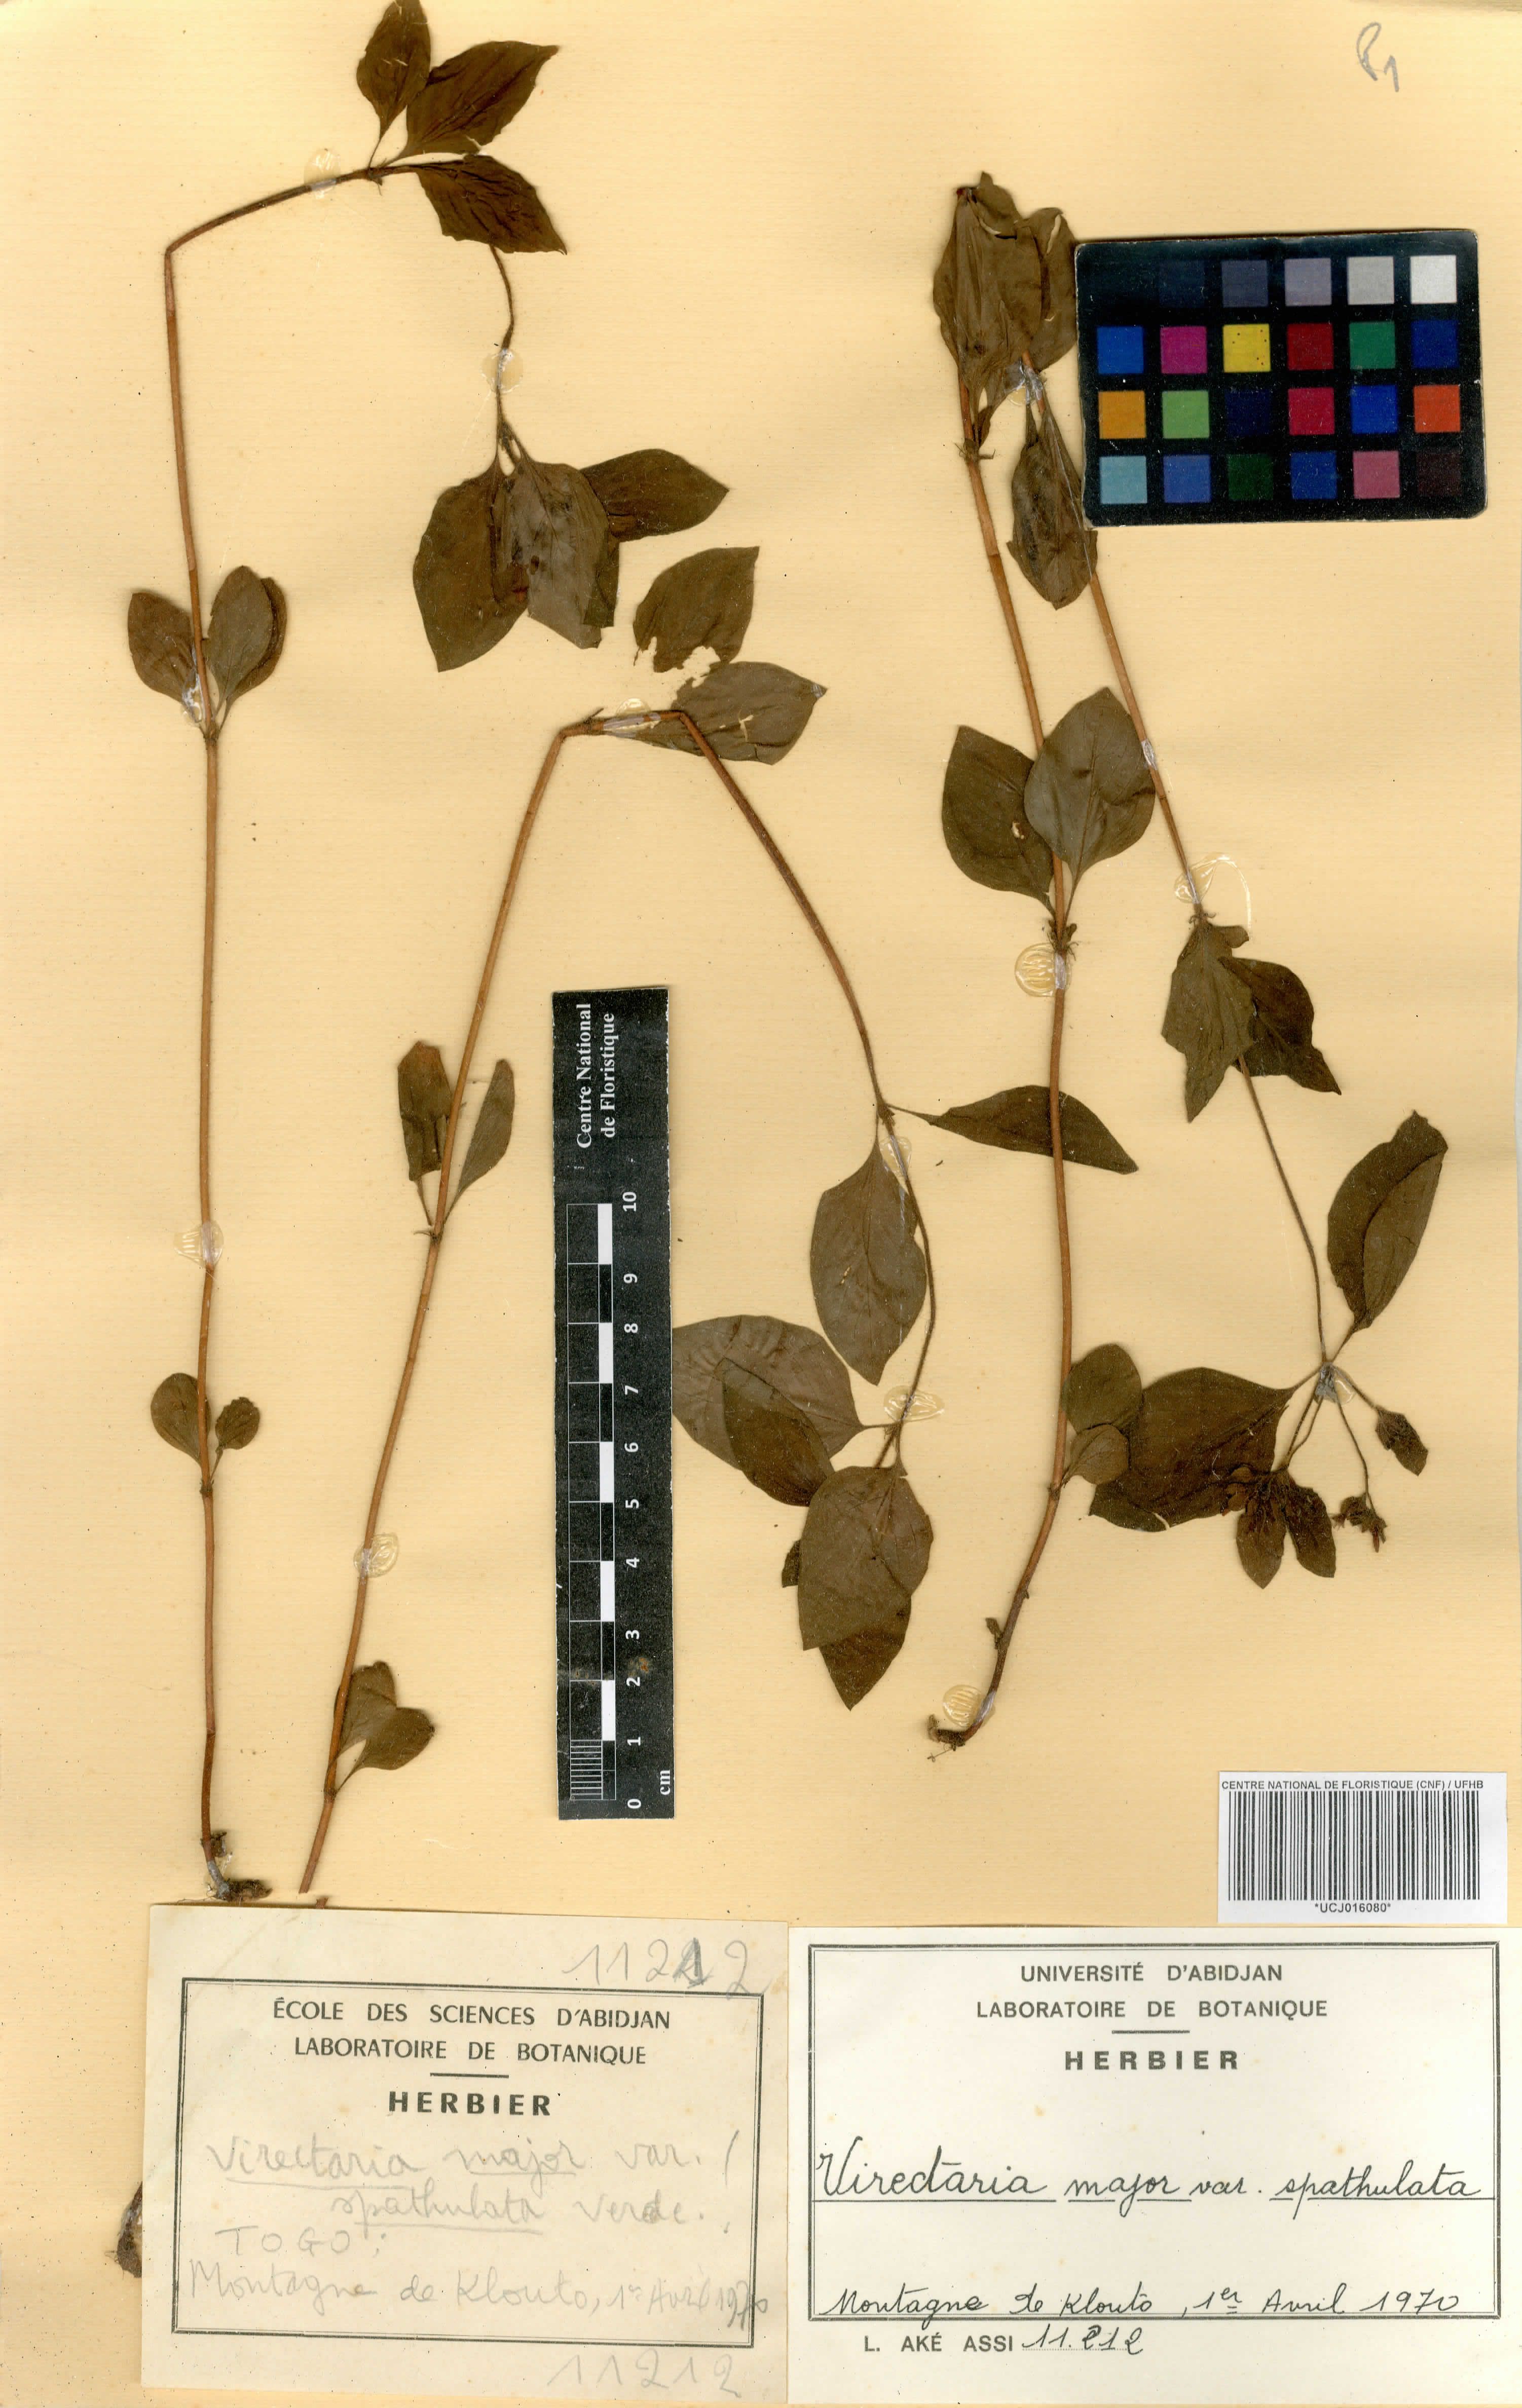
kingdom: Plantae
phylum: Tracheophyta
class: Magnoliopsida
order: Gentianales
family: Rubiaceae
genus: Virectaria
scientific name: Virectaria major
